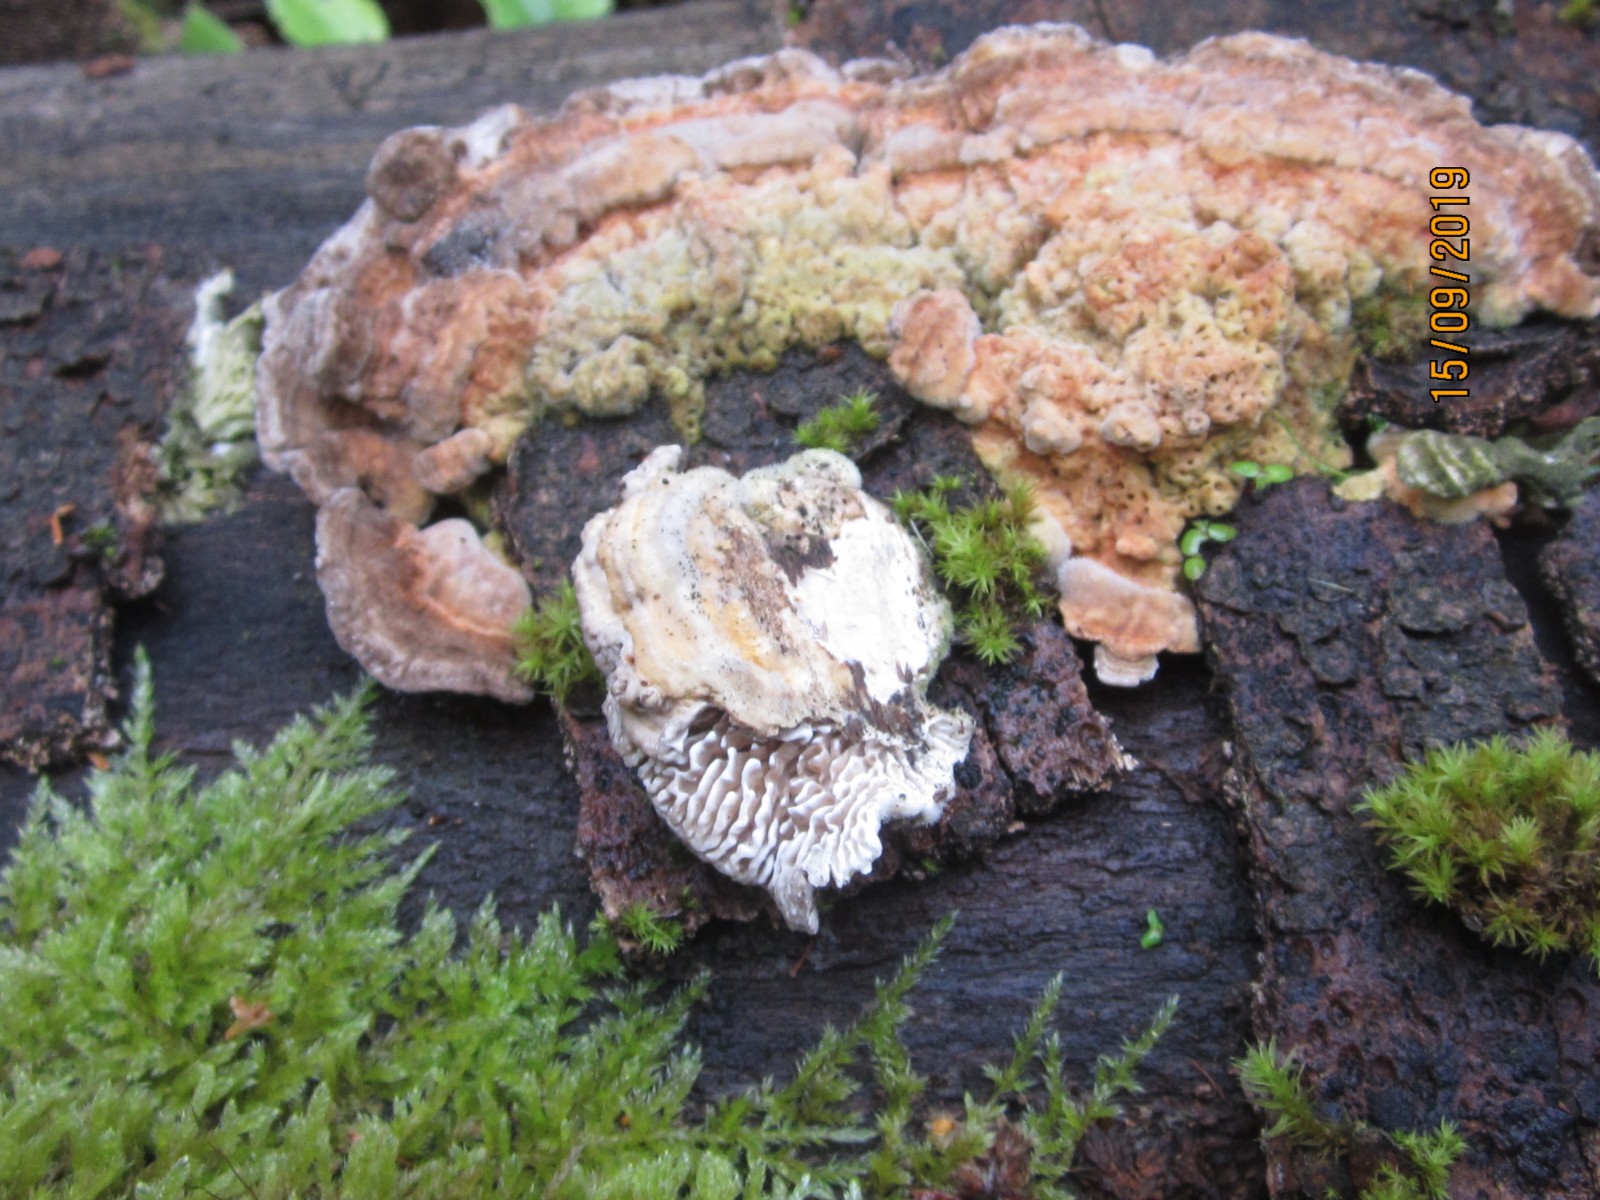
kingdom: Fungi
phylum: Basidiomycota
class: Agaricomycetes
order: Polyporales
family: Polyporaceae
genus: Lenzites
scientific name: Lenzites betulinus
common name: birke-læderporesvamp
